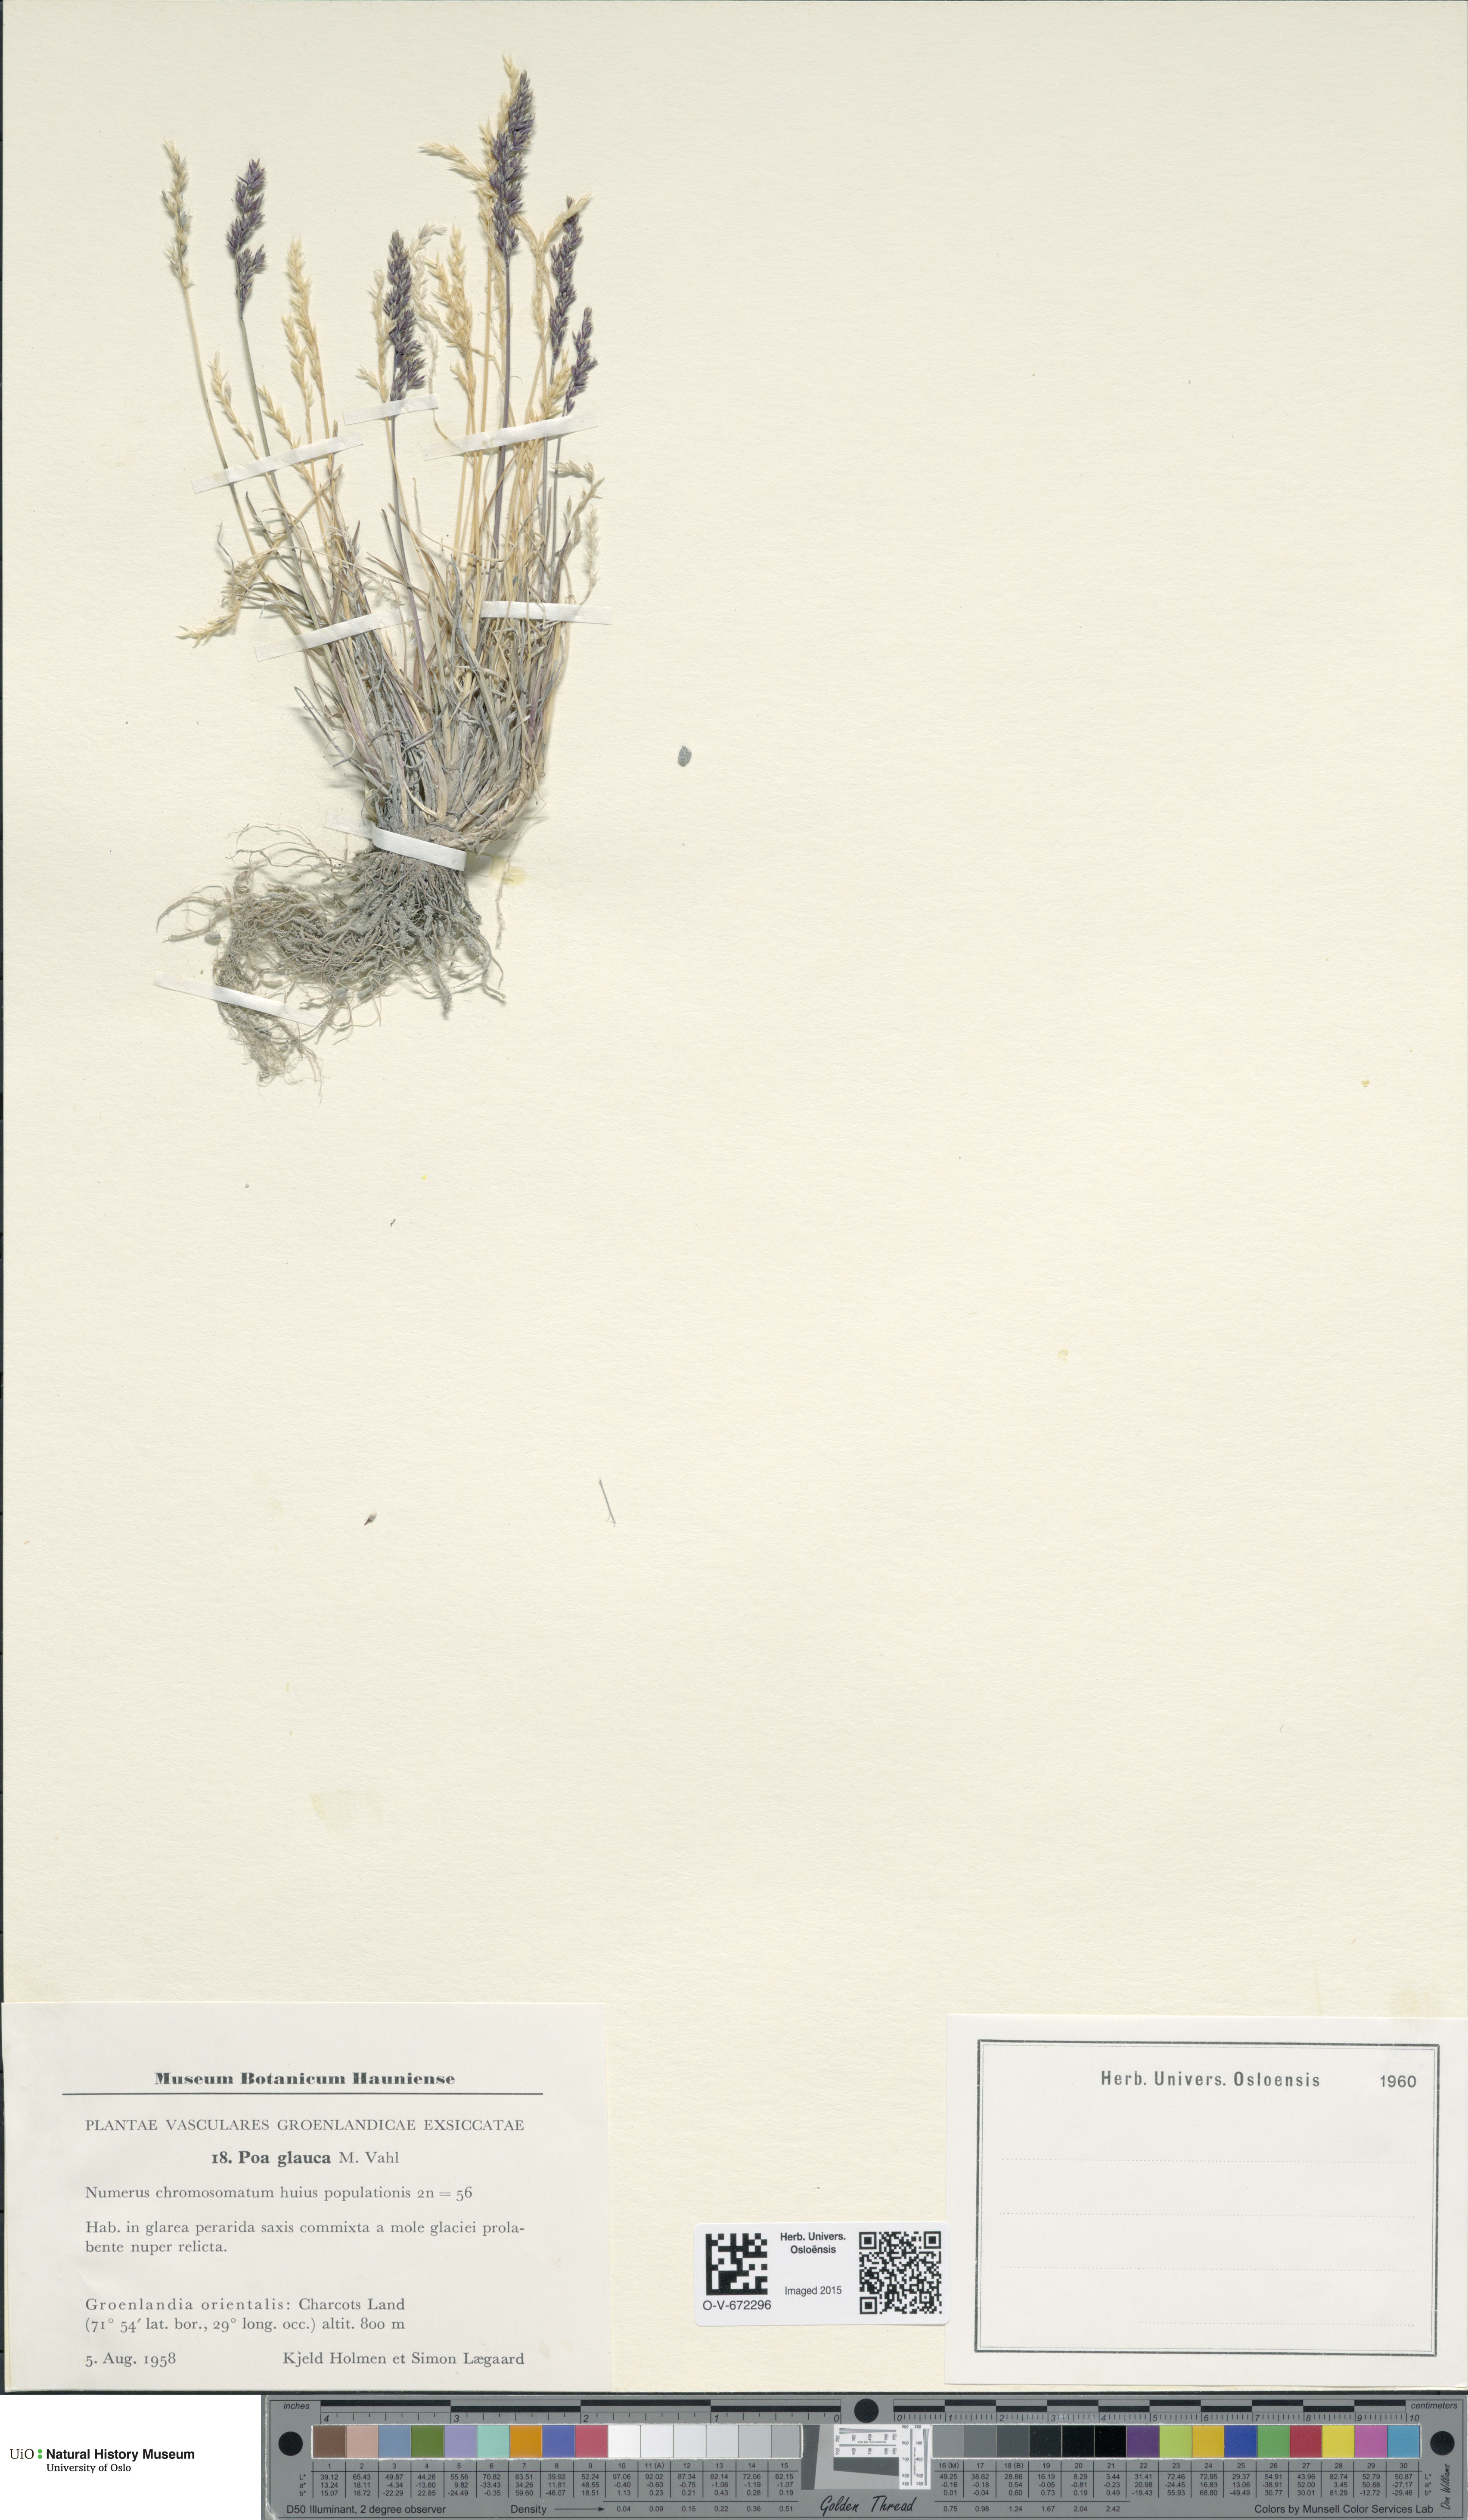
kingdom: Plantae
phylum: Tracheophyta
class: Liliopsida
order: Poales
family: Poaceae
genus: Poa
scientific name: Poa glauca
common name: Glaucous bluegrass
